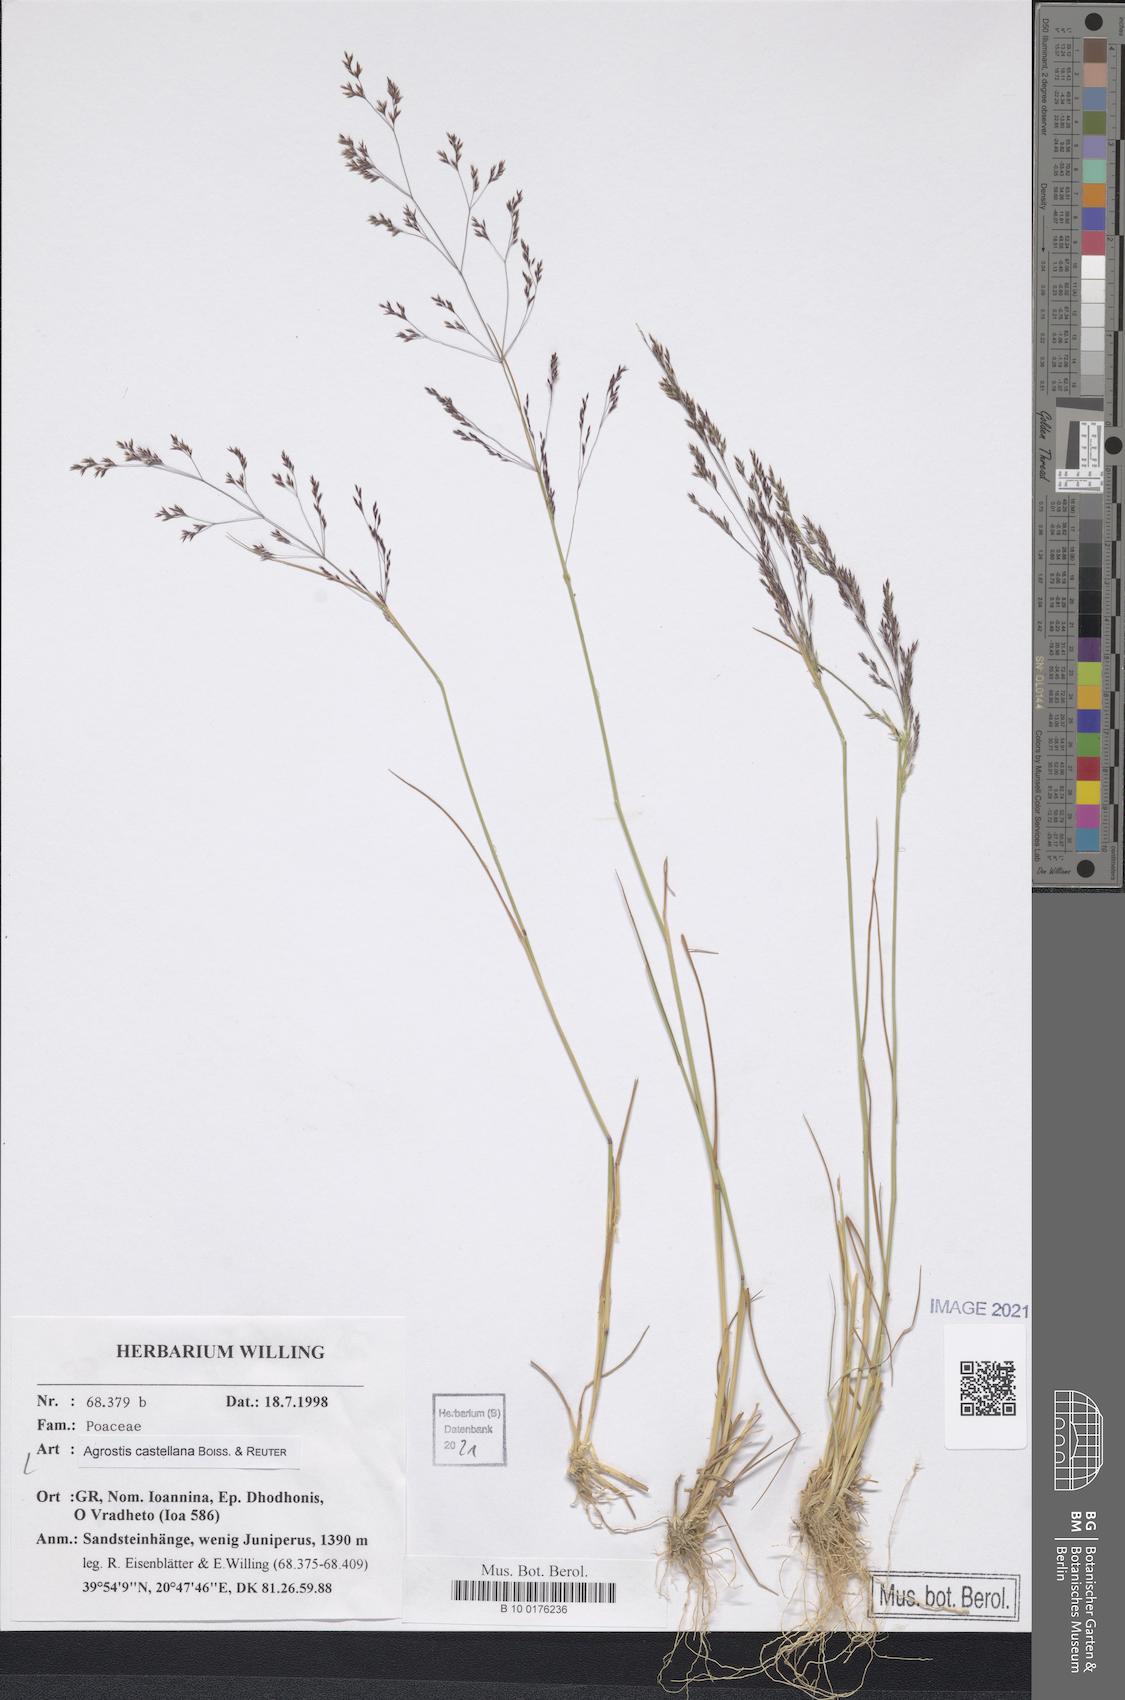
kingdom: Plantae
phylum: Tracheophyta
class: Liliopsida
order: Poales
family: Poaceae
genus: Agrostis
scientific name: Agrostis castellana
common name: Highland bent
